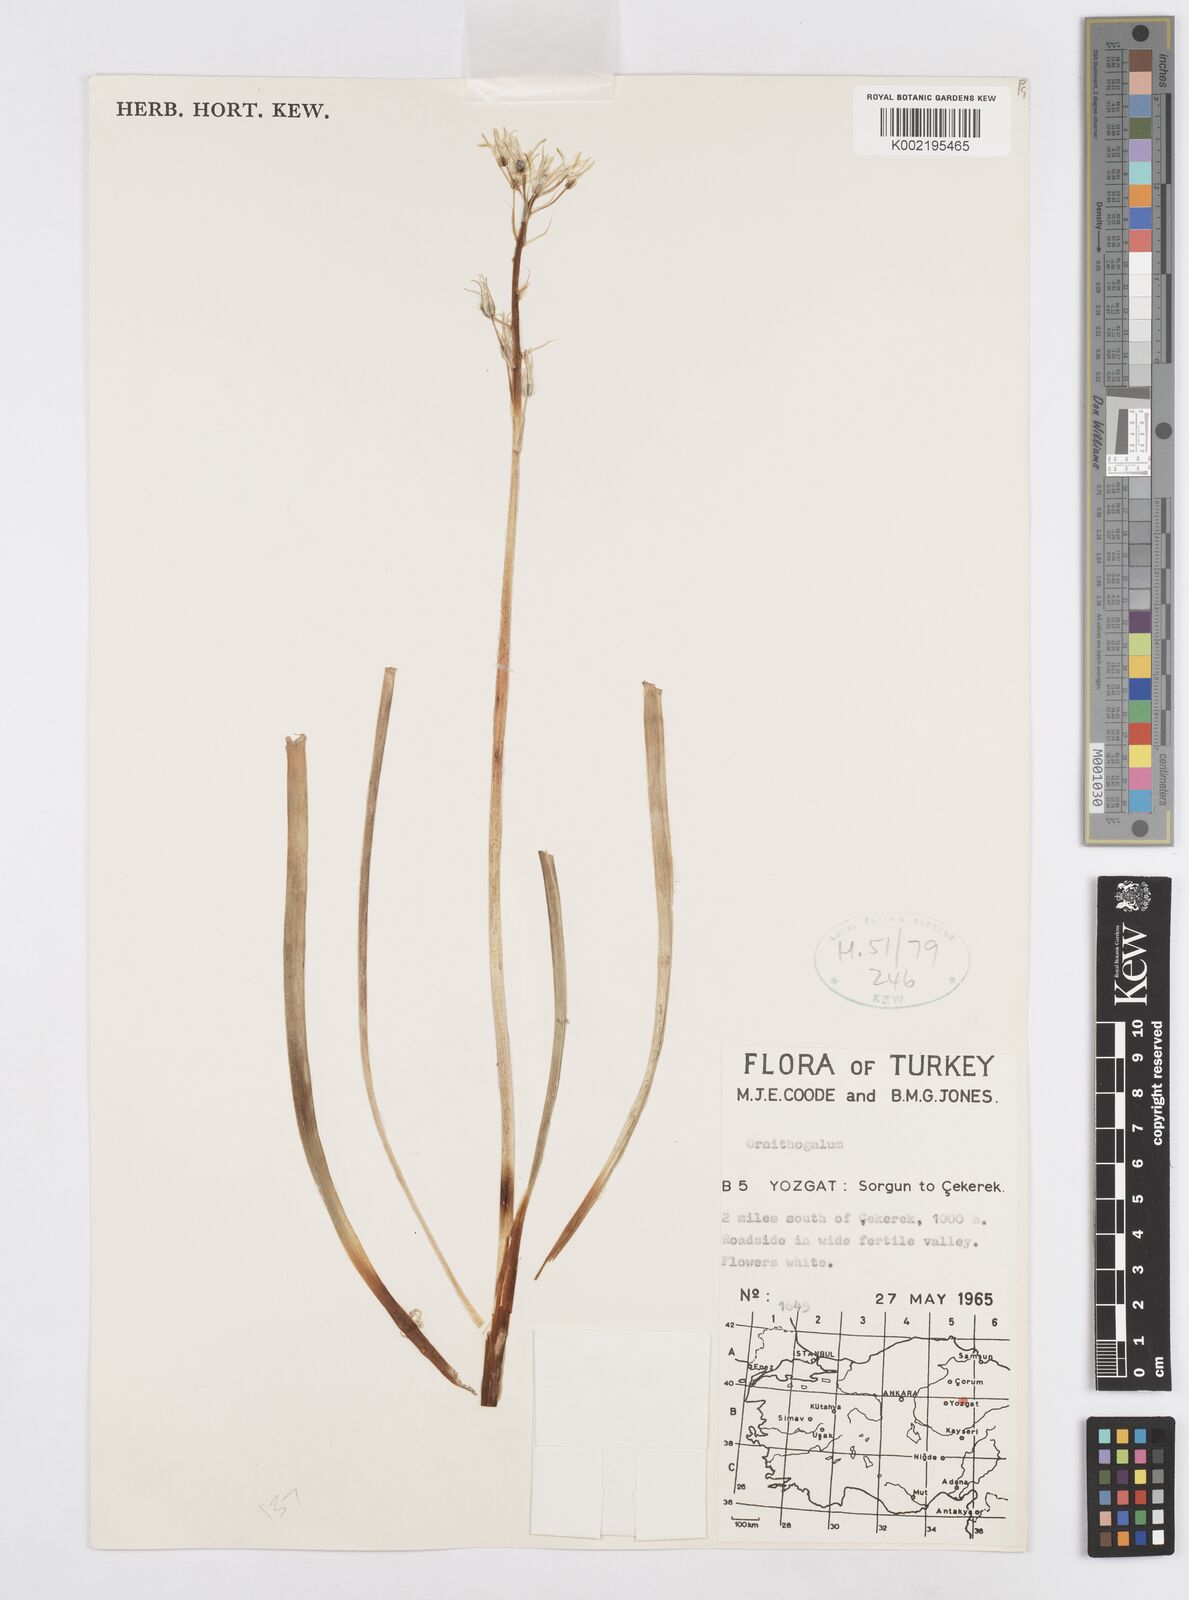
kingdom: Plantae
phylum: Tracheophyta
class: Liliopsida
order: Asparagales
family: Asparagaceae
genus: Ornithogalum
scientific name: Ornithogalum
